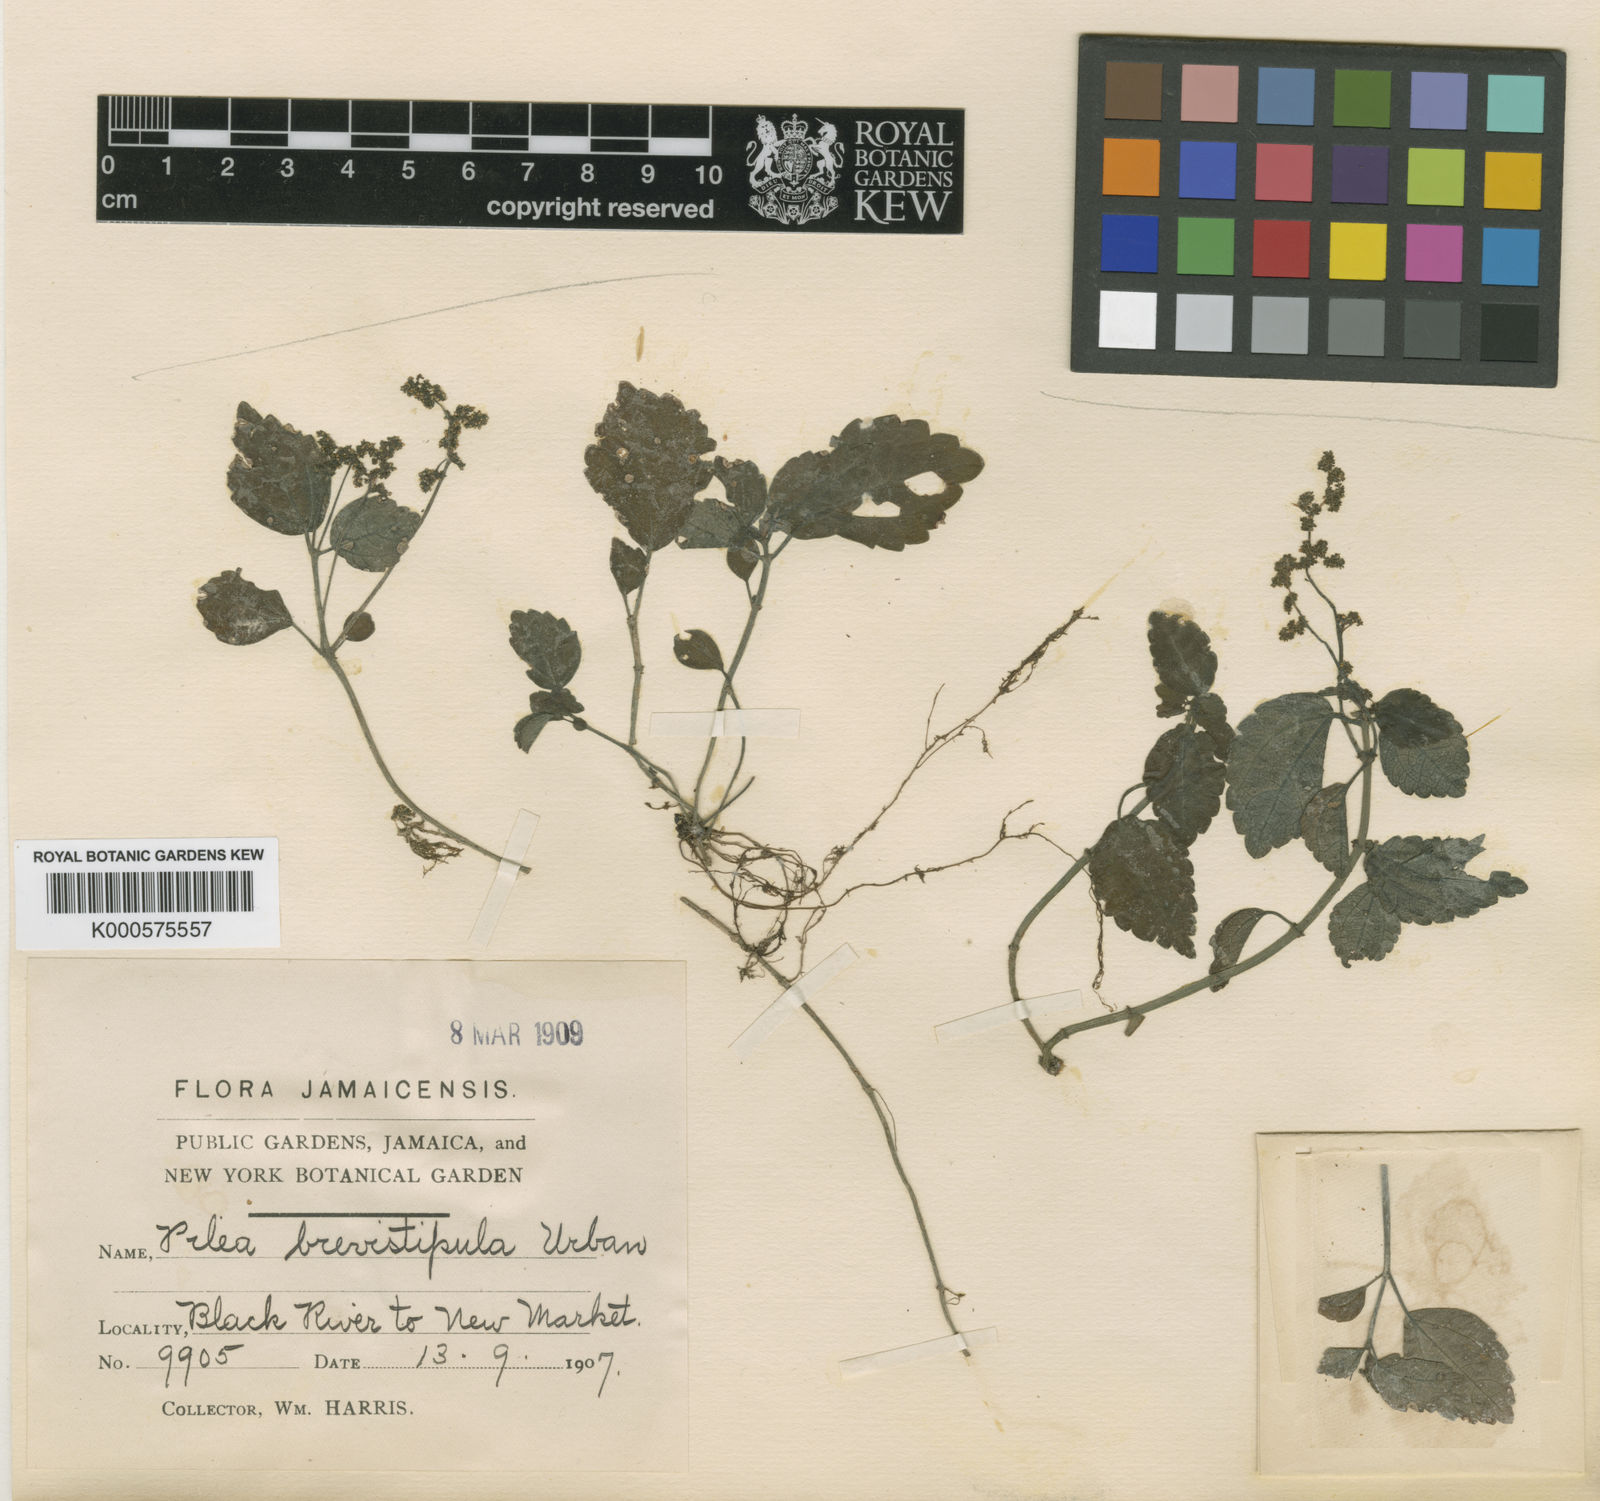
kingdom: Plantae
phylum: Tracheophyta
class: Magnoliopsida
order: Rosales
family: Urticaceae
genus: Pilea
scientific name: Pilea brevistipula
